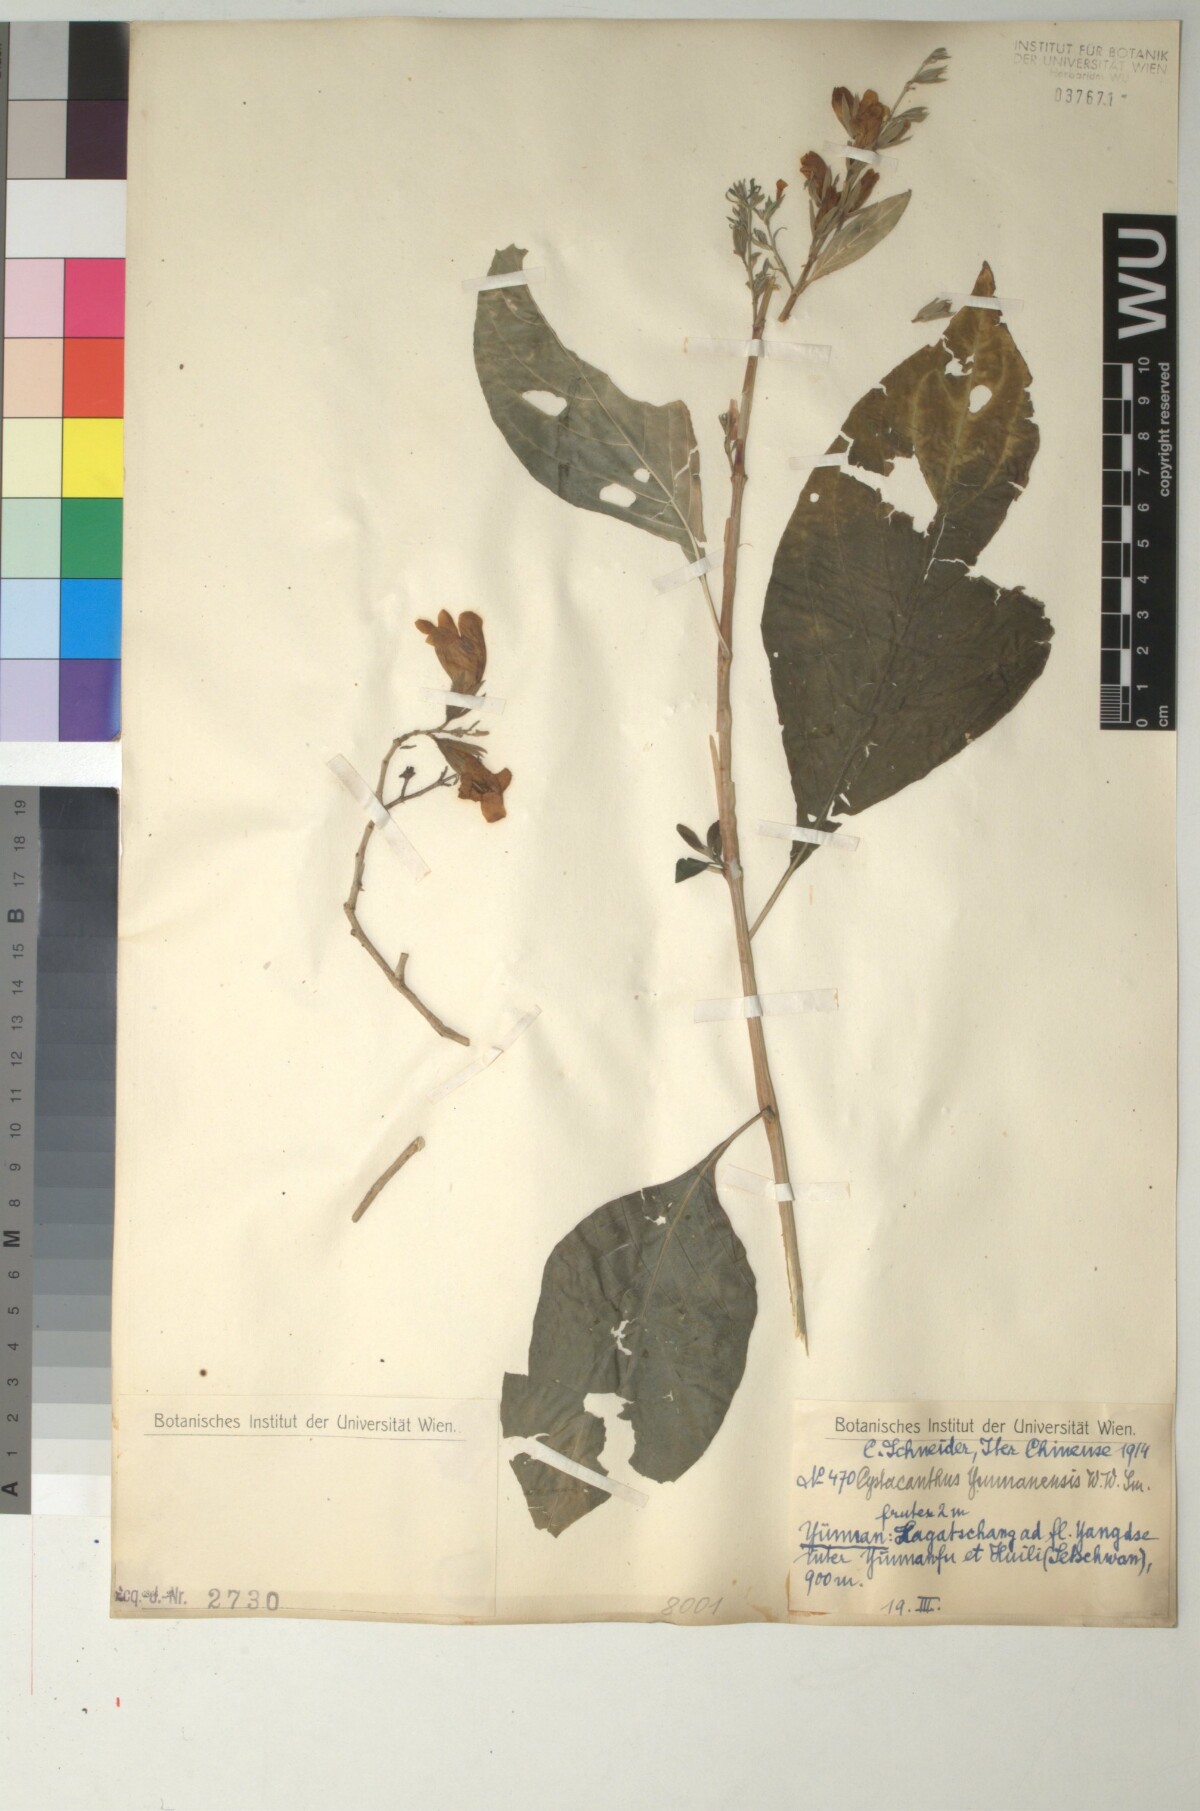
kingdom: Plantae
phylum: Tracheophyta
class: Magnoliopsida
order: Lamiales
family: Acanthaceae
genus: Phlogacanthus
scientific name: Phlogacanthus yangtsekiangensis
